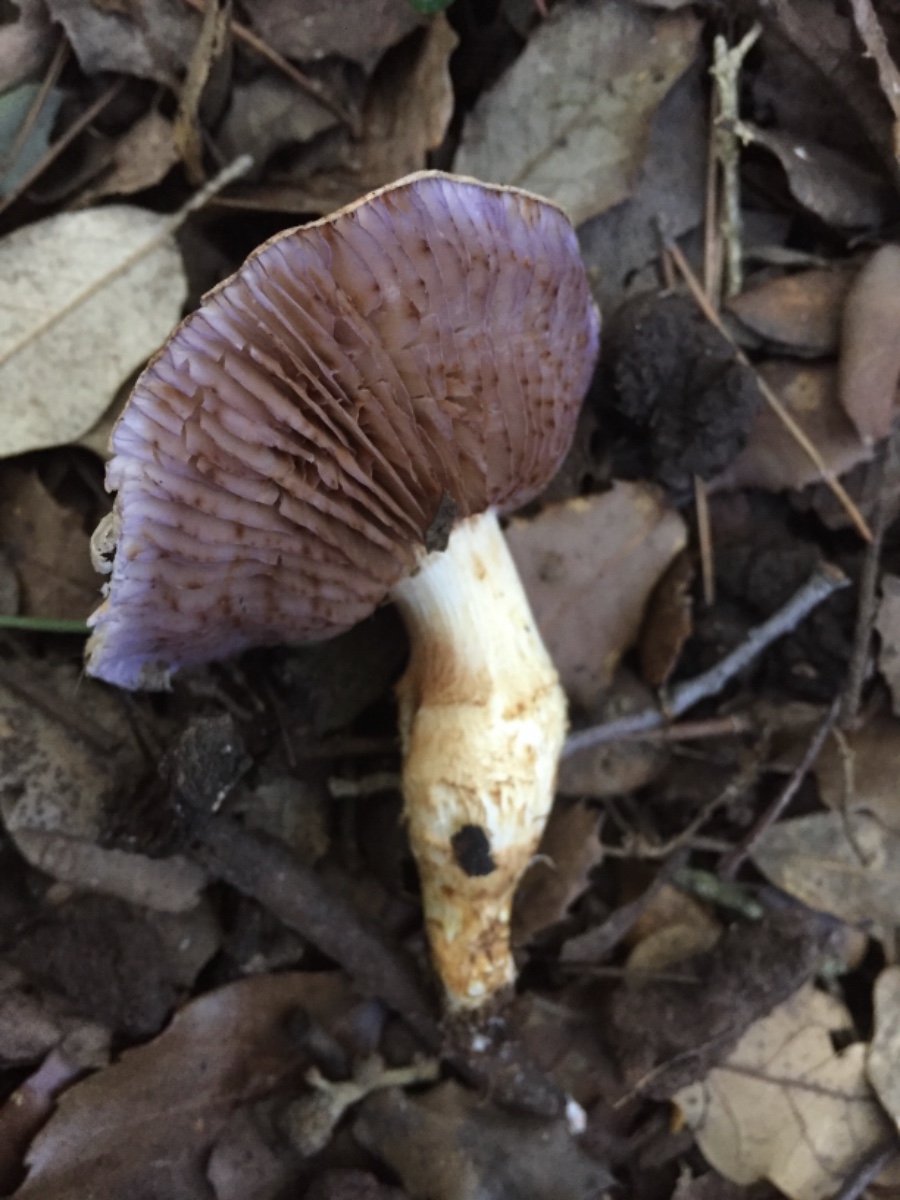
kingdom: Fungi
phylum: Basidiomycota
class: Agaricomycetes
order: Agaricales
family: Cortinariaceae
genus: Phlegmacium
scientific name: Phlegmacium caligatum
